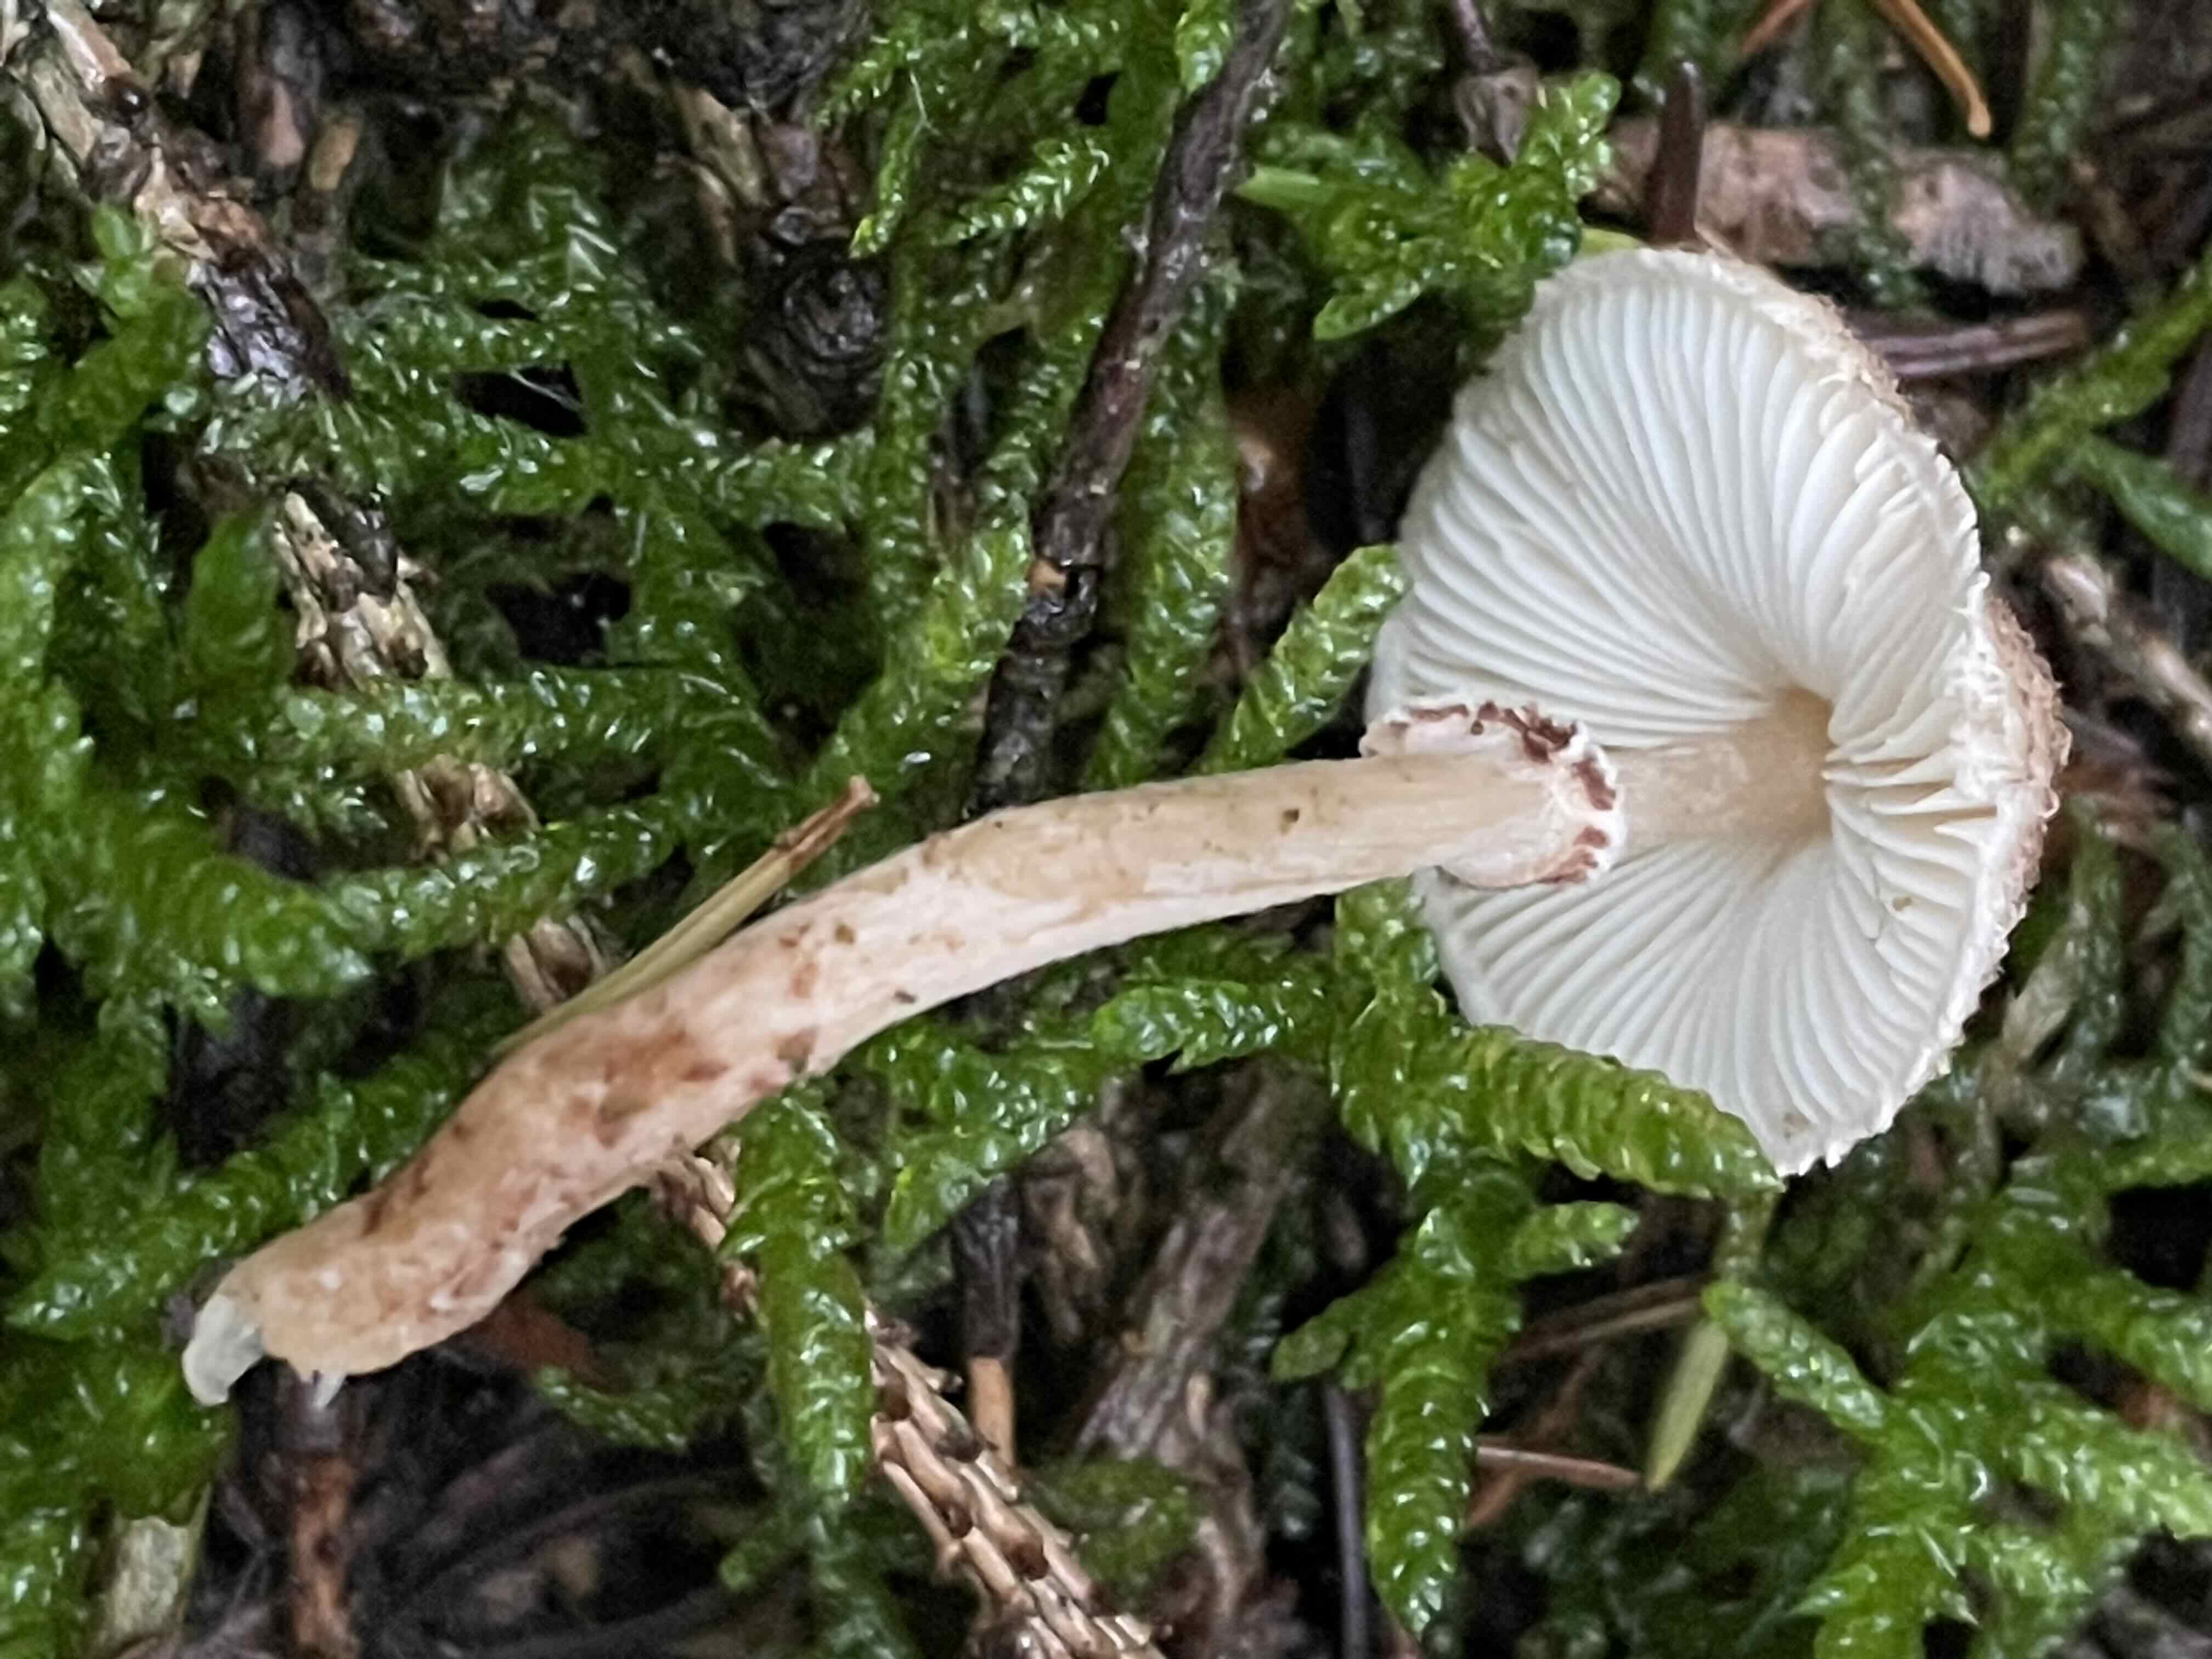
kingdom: Fungi
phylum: Basidiomycota
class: Agaricomycetes
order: Agaricales
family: Agaricaceae
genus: Lepiota
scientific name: Lepiota felina
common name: sortskællet parasolhat
